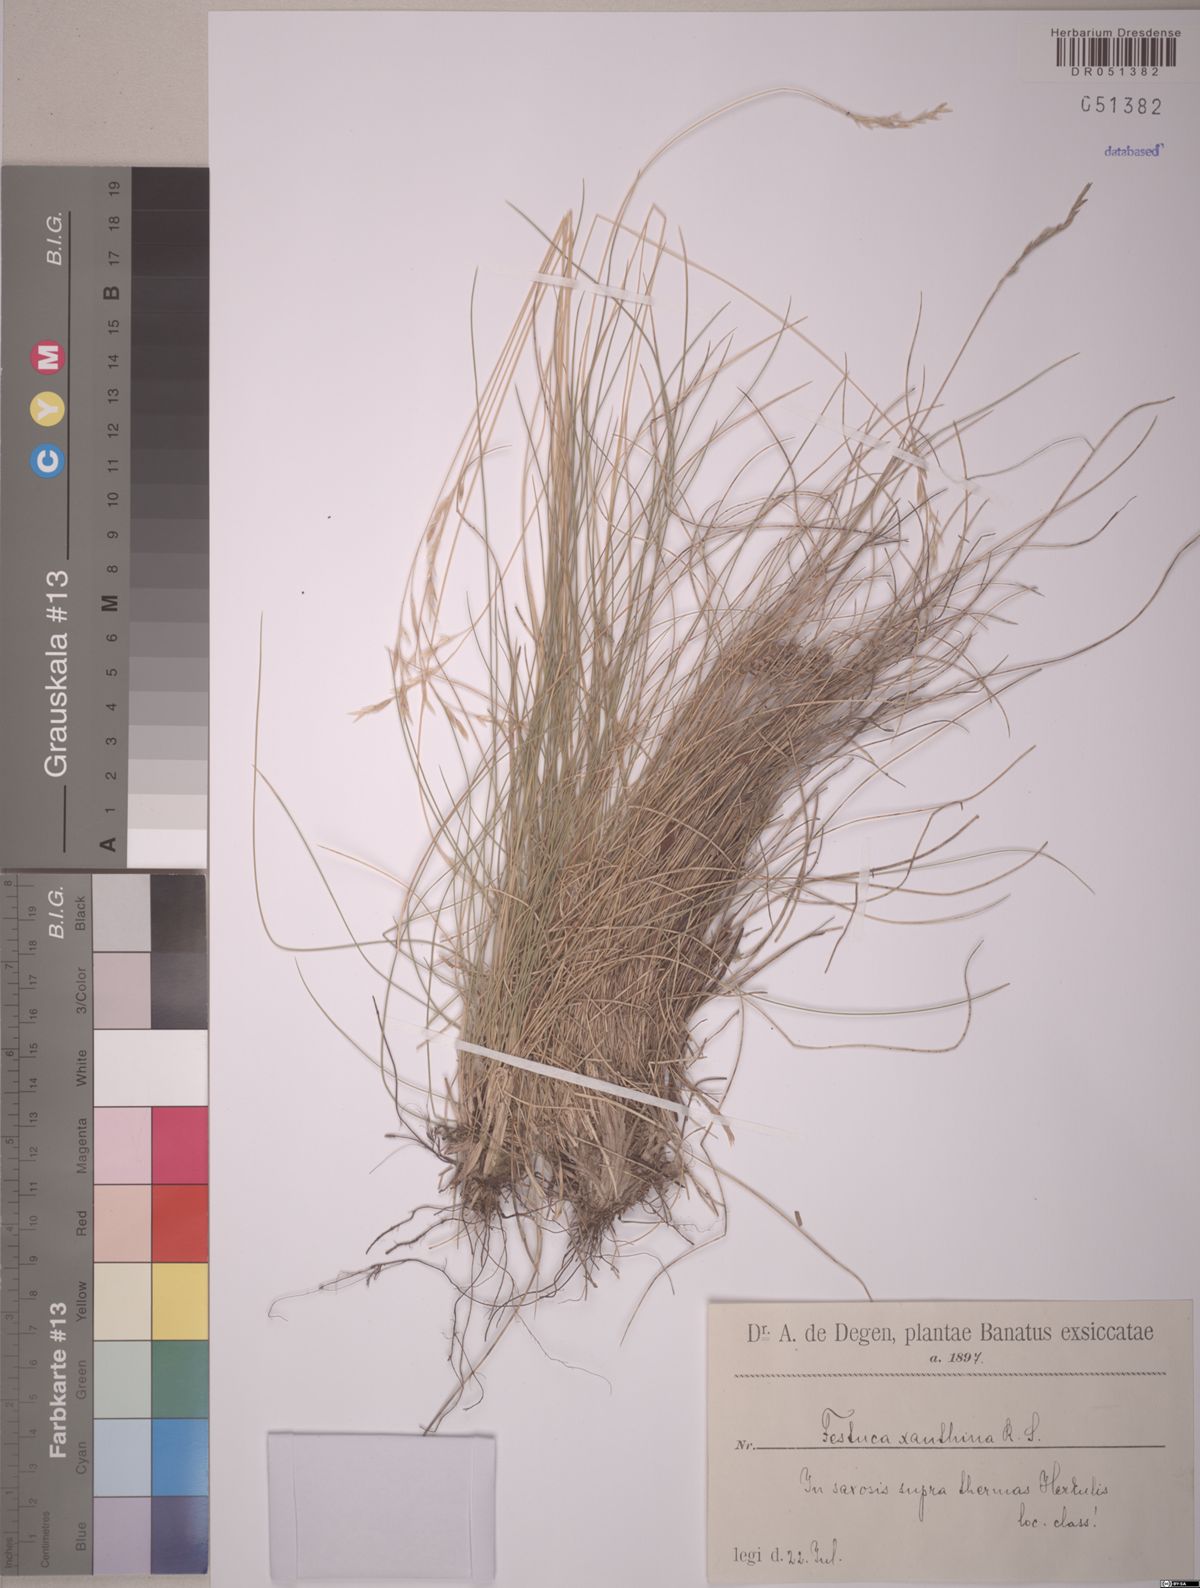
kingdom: Plantae
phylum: Tracheophyta
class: Liliopsida
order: Poales
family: Poaceae
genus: Festuca
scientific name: Festuca xanthina
